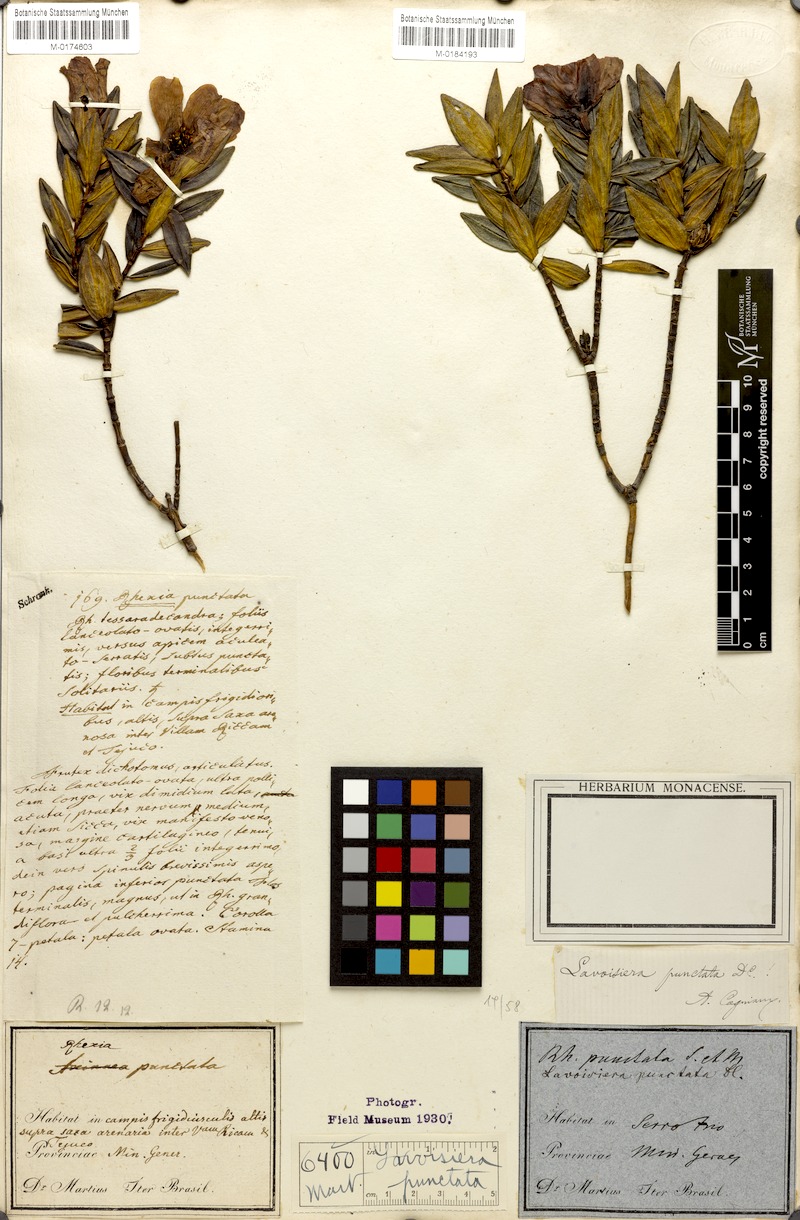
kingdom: Plantae
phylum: Tracheophyta
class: Magnoliopsida
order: Myrtales
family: Melastomataceae
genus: Microlicia
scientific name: Microlicia punctata
